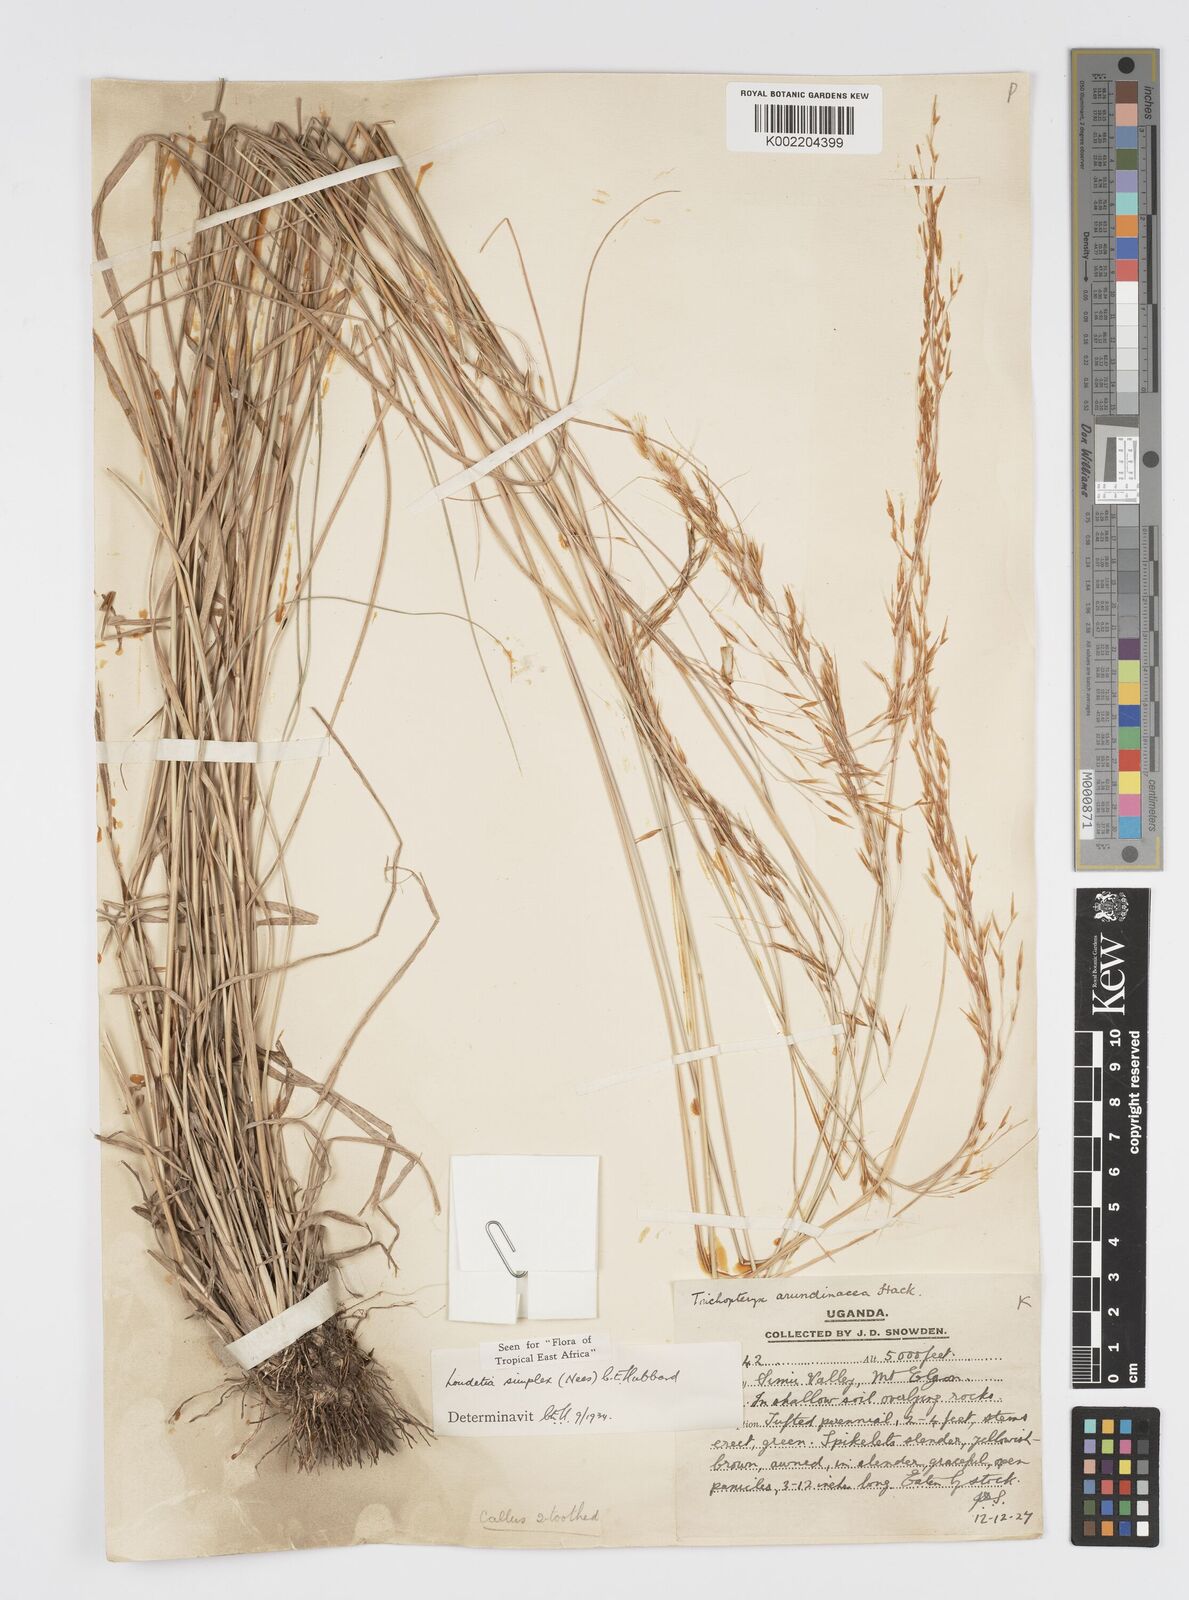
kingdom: Plantae
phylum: Tracheophyta
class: Liliopsida
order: Poales
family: Poaceae
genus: Loudetia
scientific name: Loudetia simplex
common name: Common russet grass
